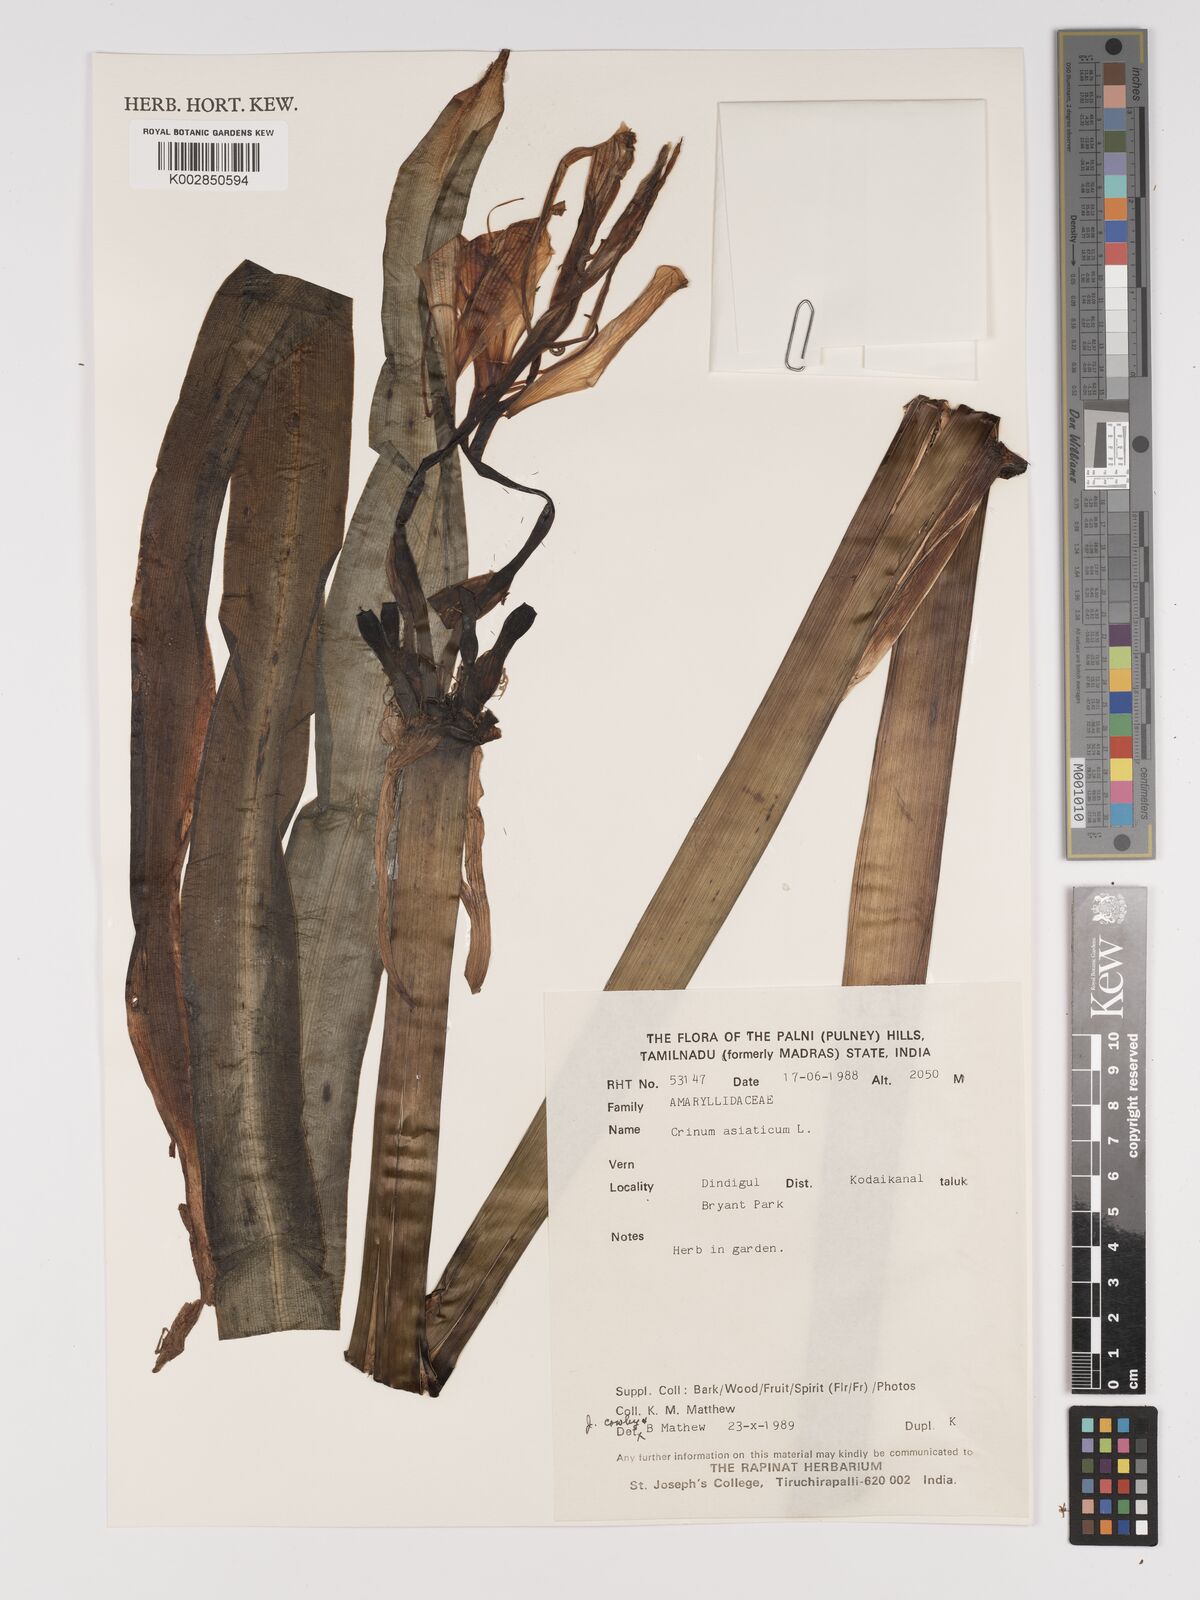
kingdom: Plantae
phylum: Tracheophyta
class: Liliopsida
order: Asparagales
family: Amaryllidaceae
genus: Crinum
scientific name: Crinum asiaticum
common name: Poisonbulb
